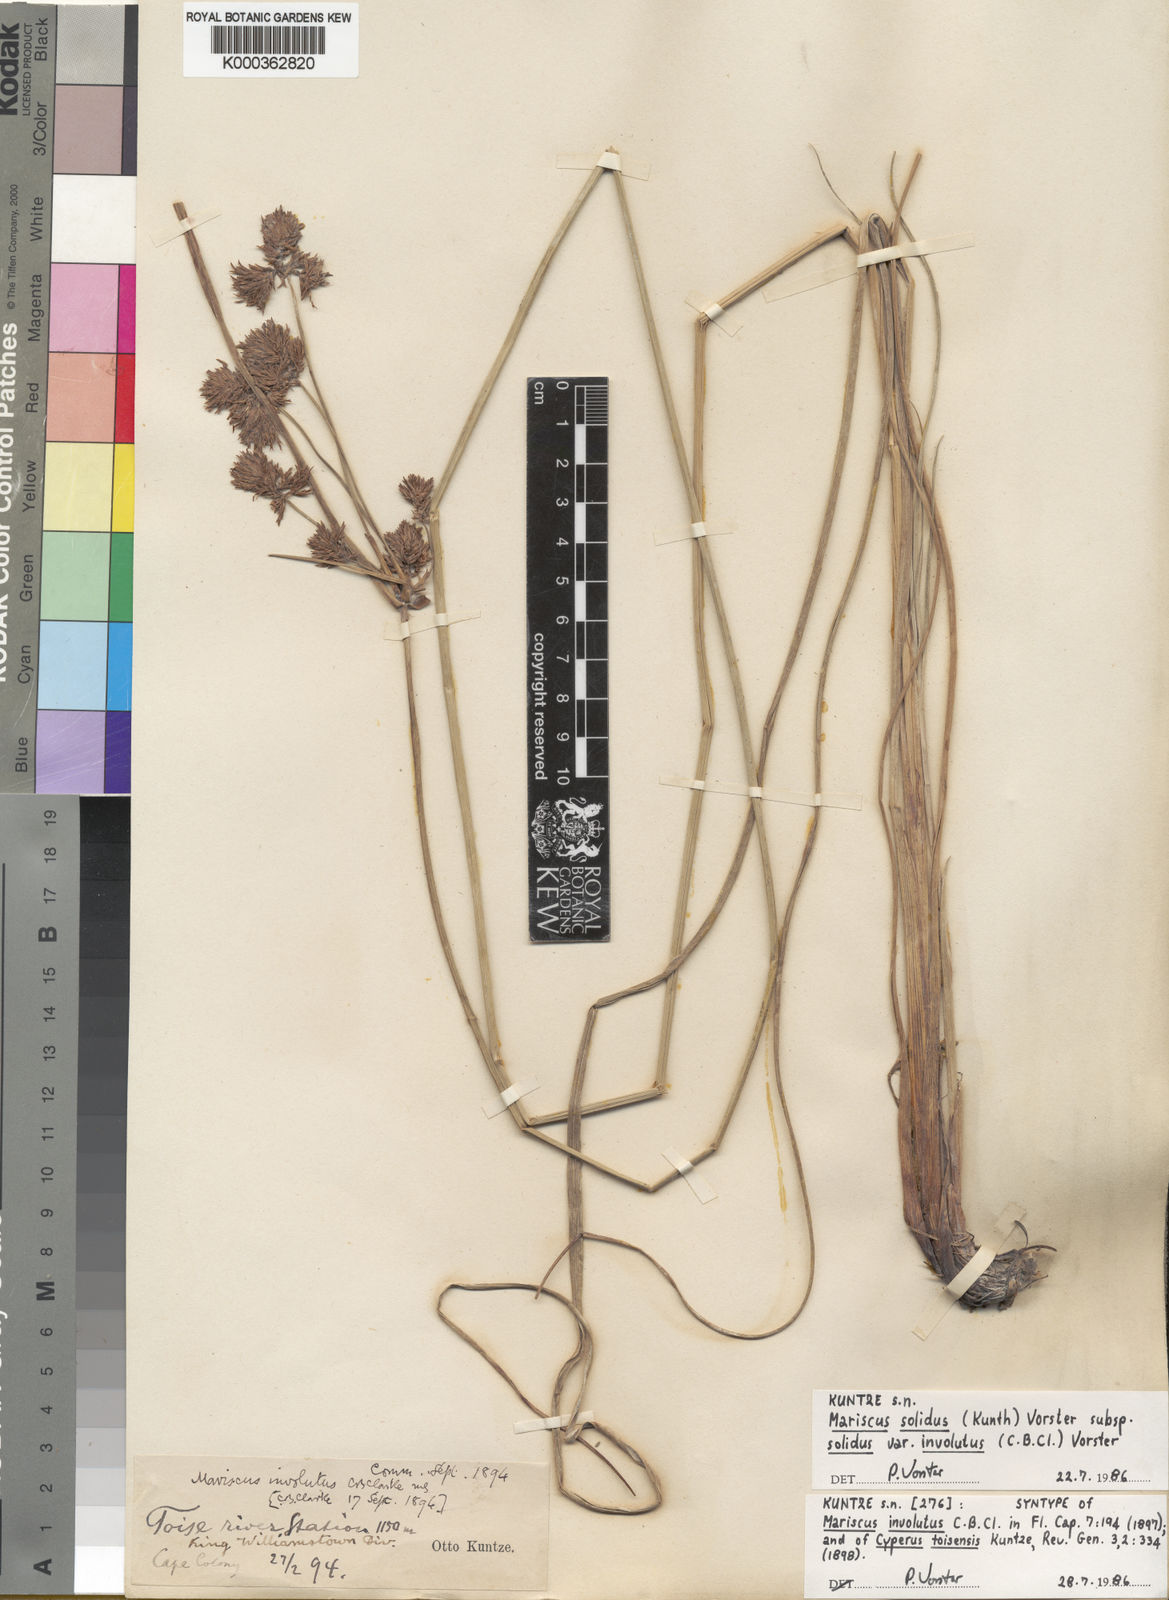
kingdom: Plantae
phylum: Tracheophyta
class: Liliopsida
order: Poales
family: Cyperaceae
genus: Cyperus
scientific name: Cyperus dactyliformis
